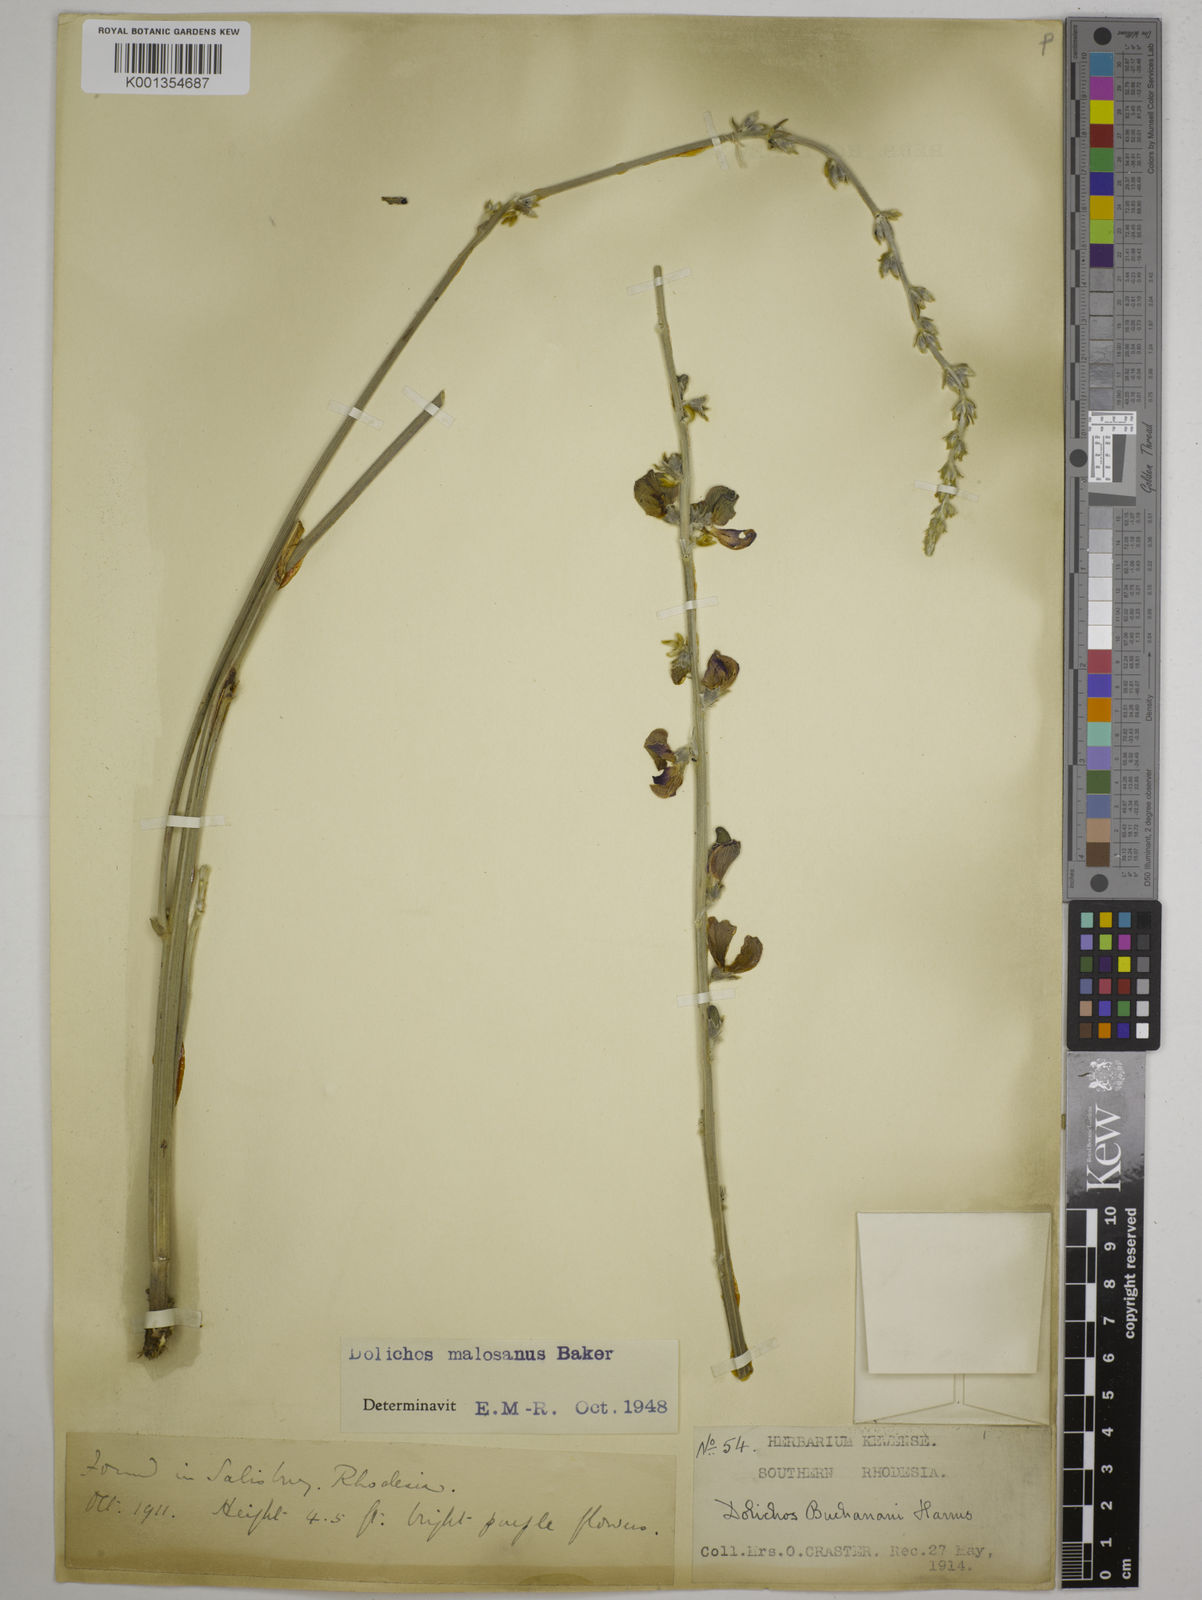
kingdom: Plantae
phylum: Tracheophyta
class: Magnoliopsida
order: Fabales
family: Fabaceae
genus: Dolichos
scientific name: Dolichos kilimandscharicus
